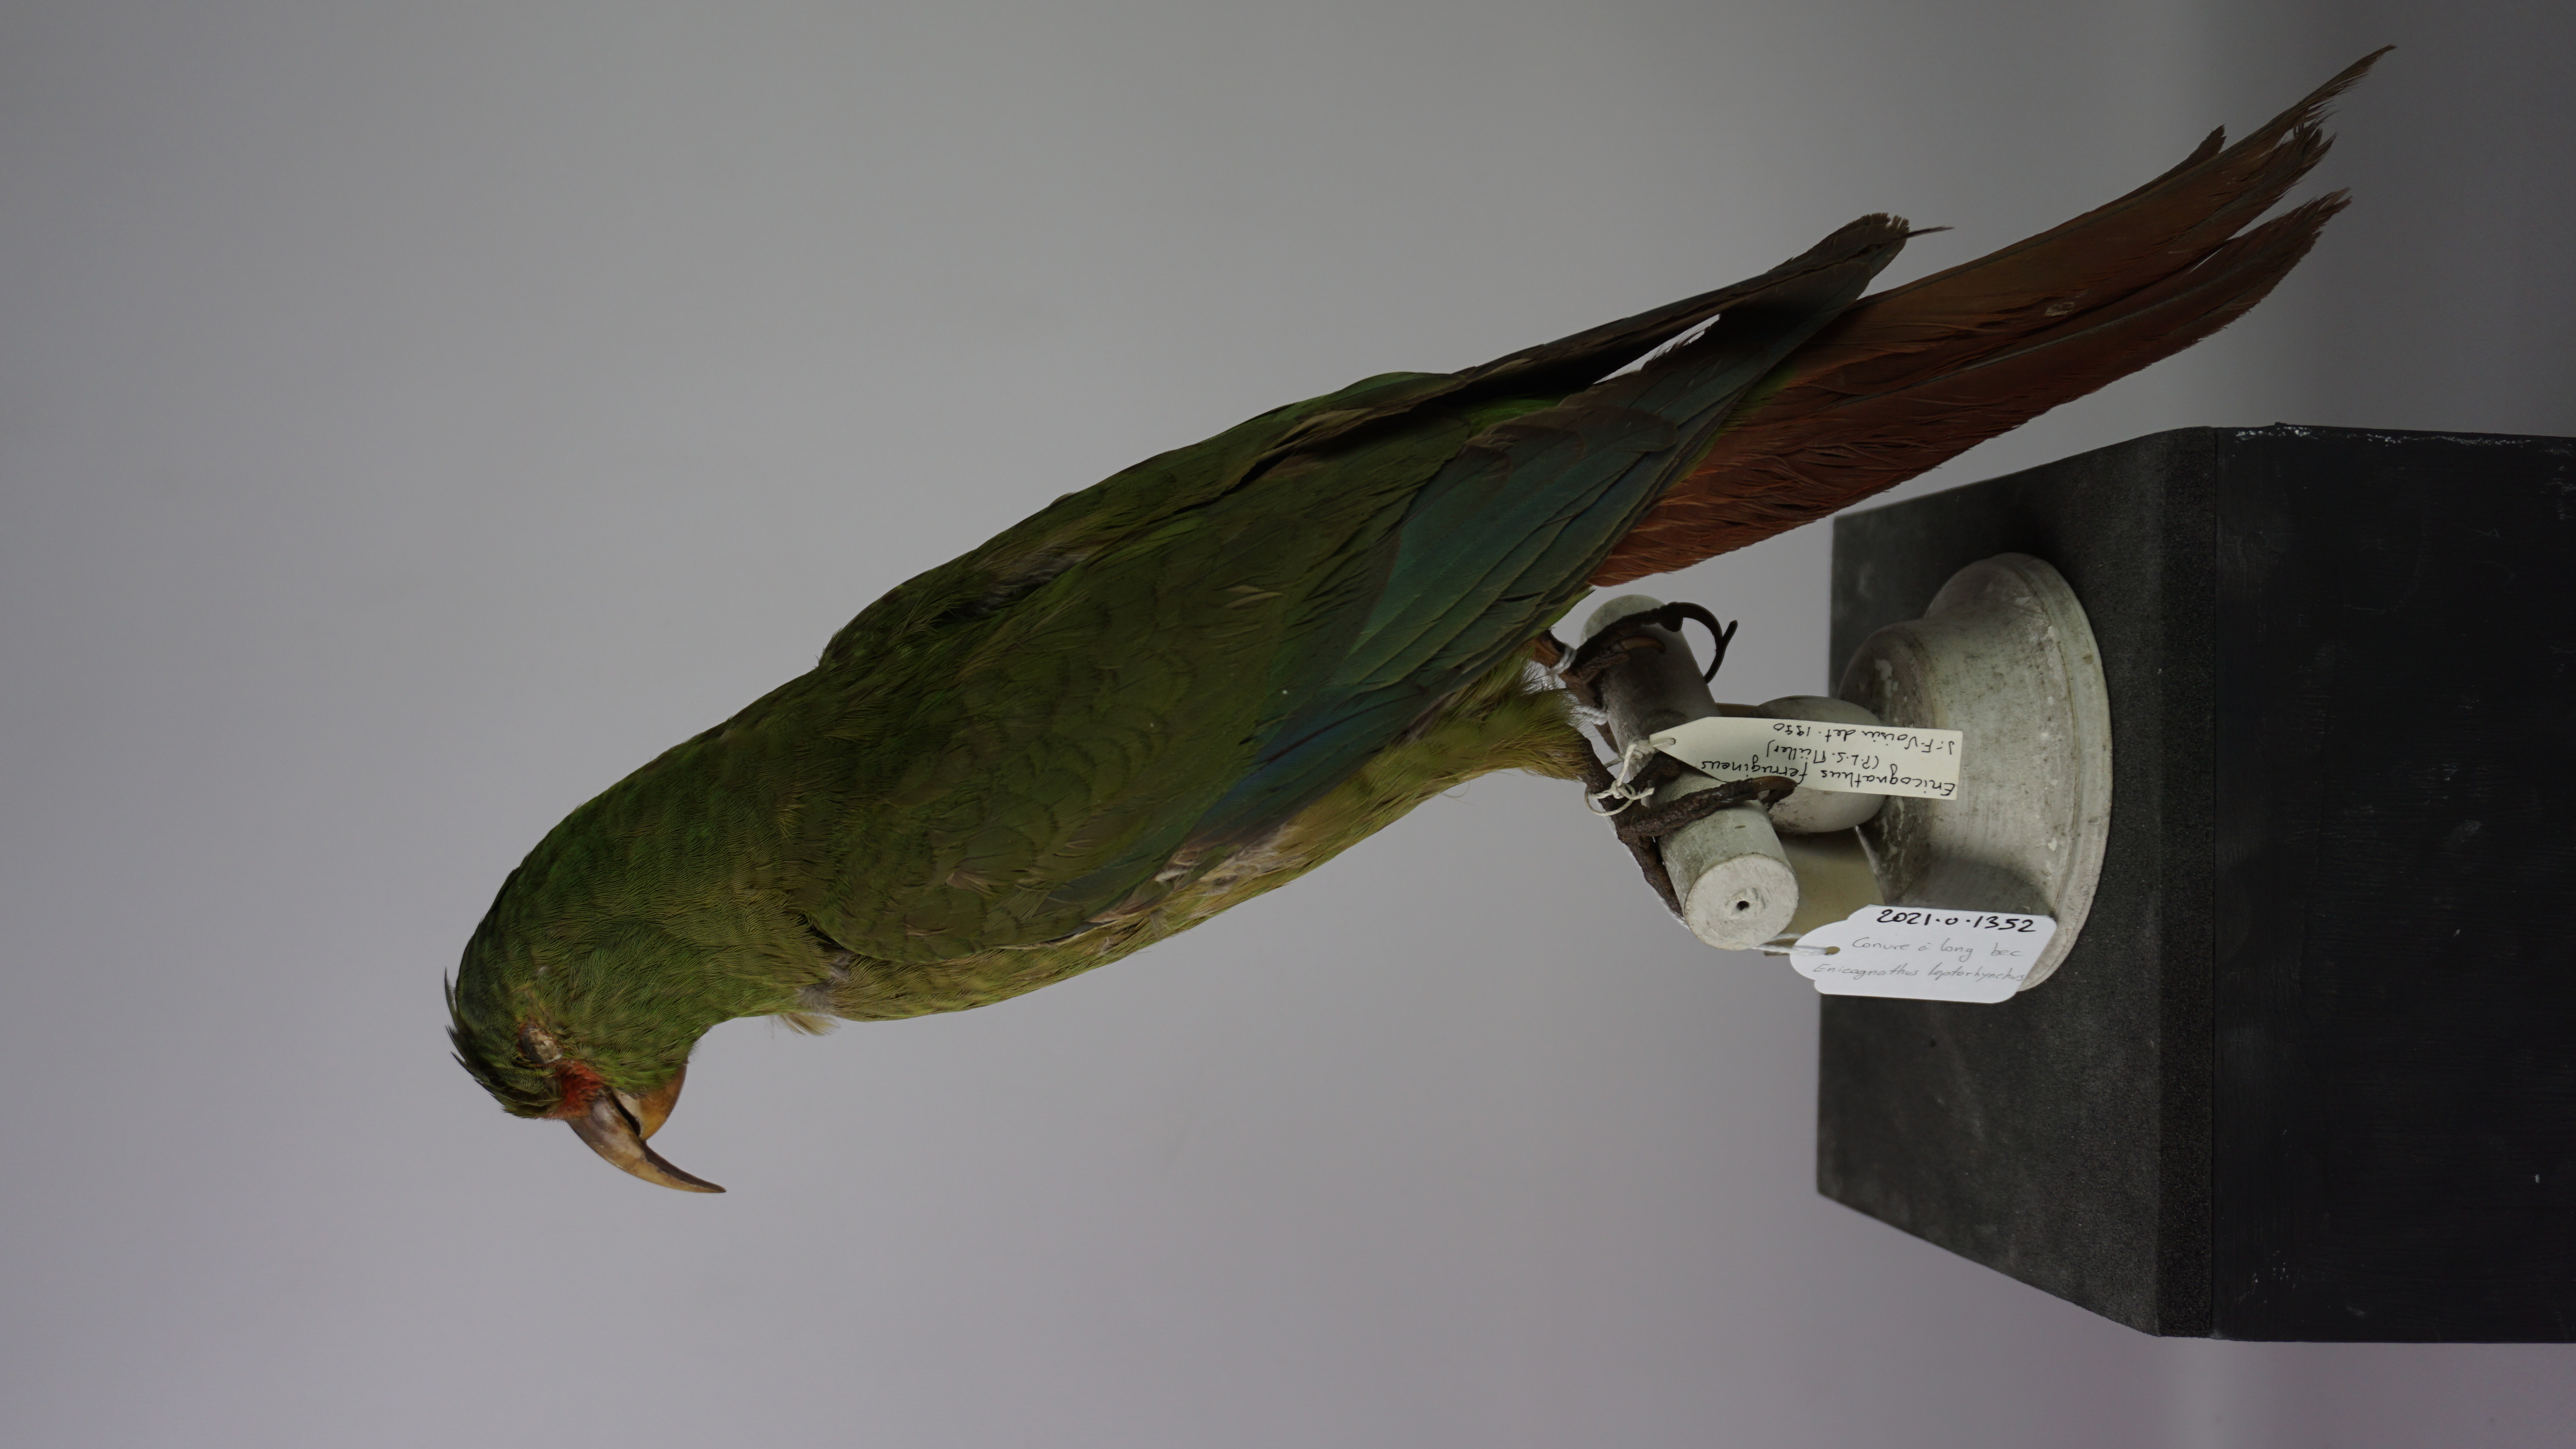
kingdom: Animalia
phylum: Chordata
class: Aves
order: Psittaciformes
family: Psittacidae
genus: Enicognathus
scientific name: Enicognathus leptorhynchus
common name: Slender-billed parakeet
